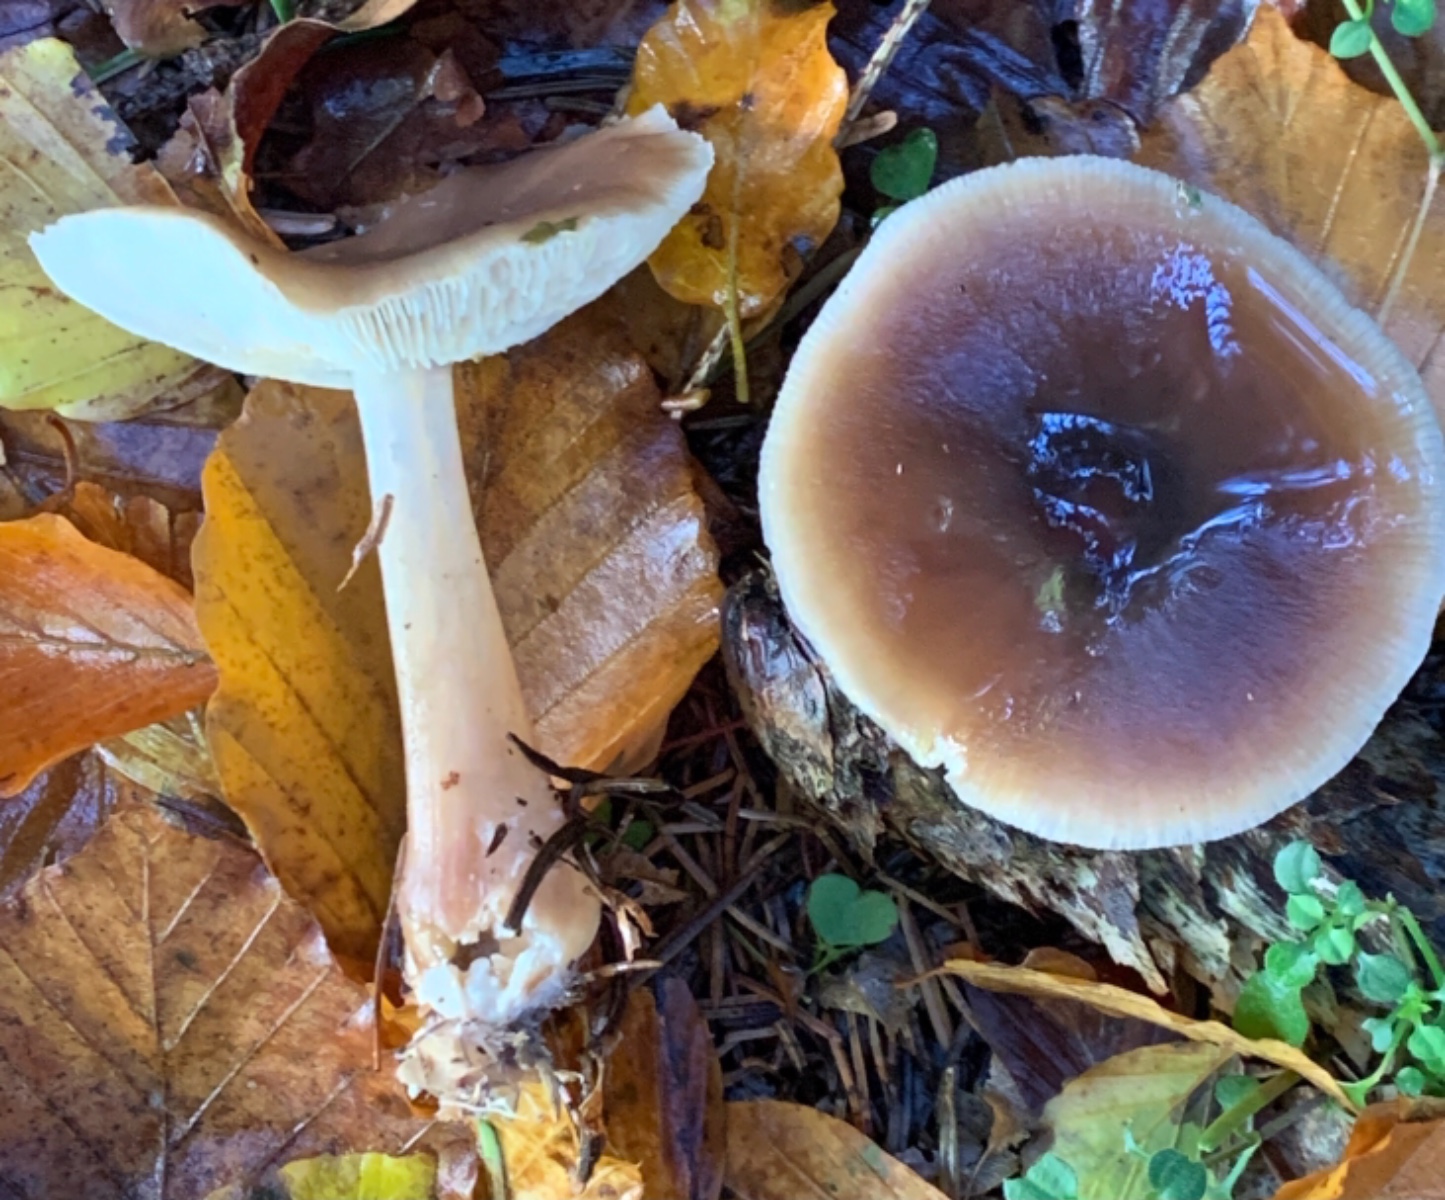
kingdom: Fungi
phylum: Basidiomycota
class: Agaricomycetes
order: Agaricales
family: Omphalotaceae
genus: Rhodocollybia
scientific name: Rhodocollybia asema
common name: horngrå fladhat
